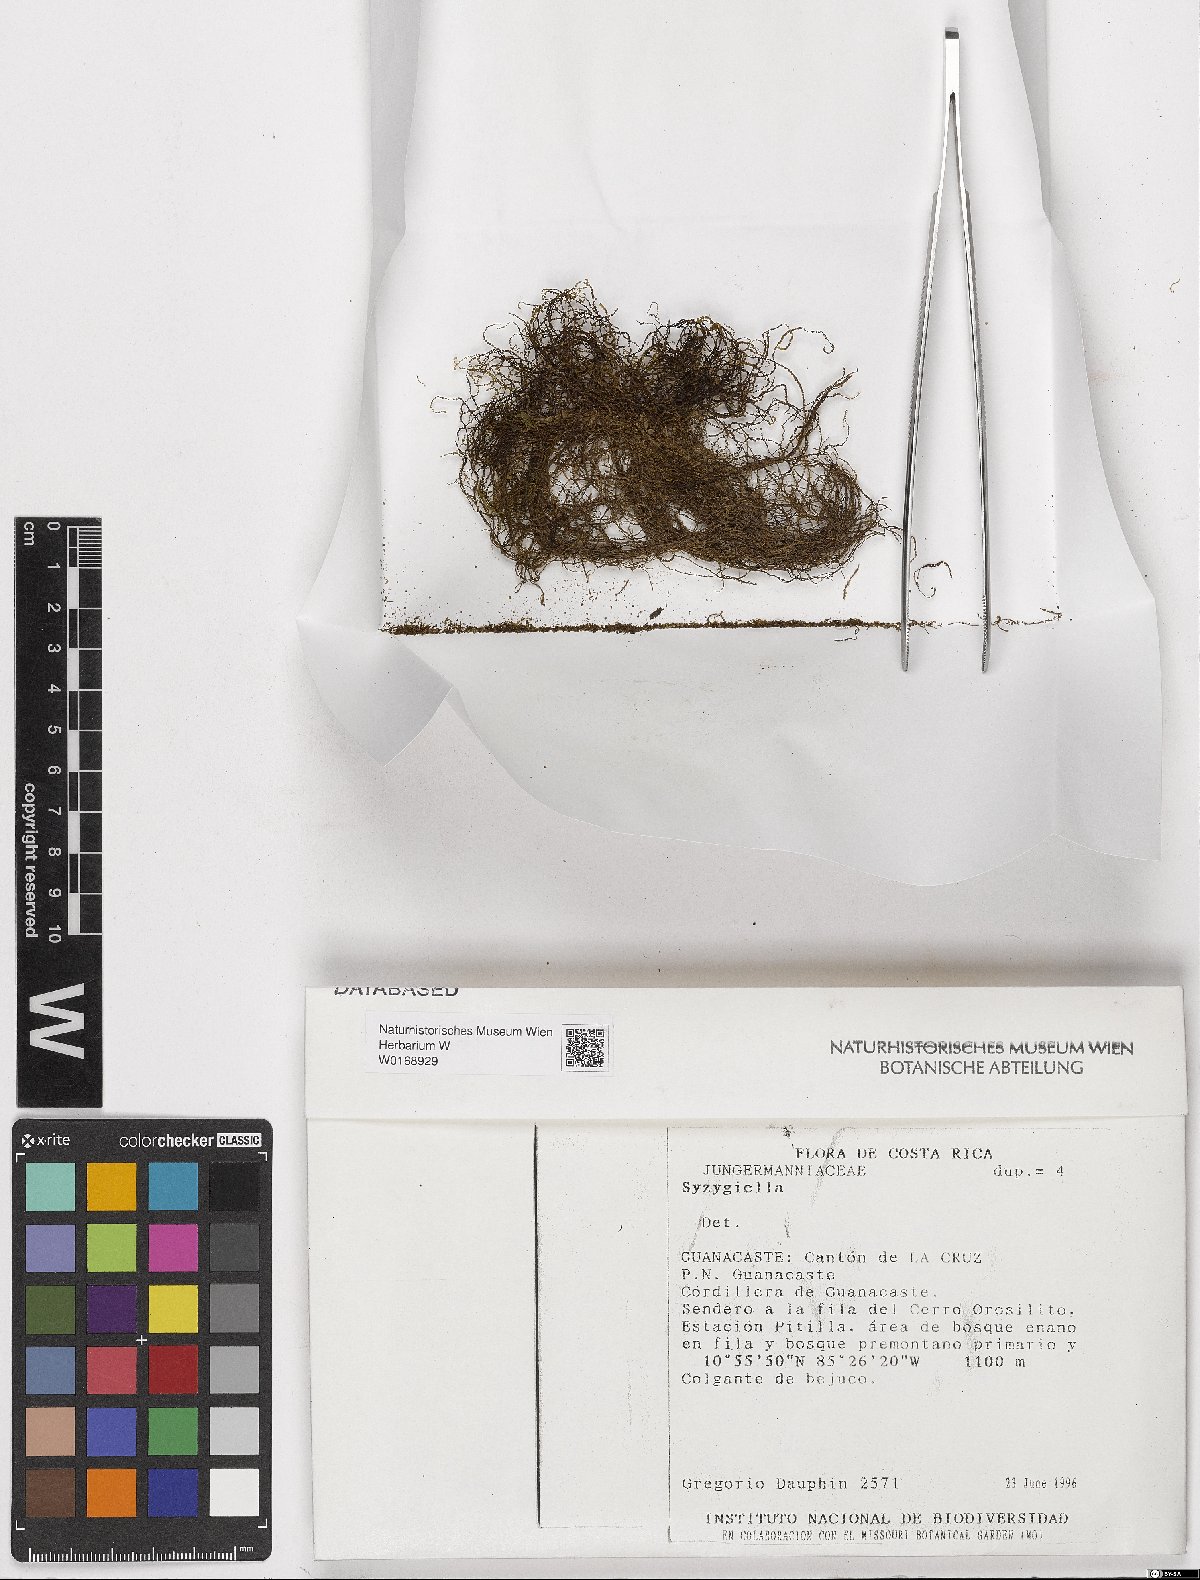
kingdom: Plantae
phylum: Marchantiophyta
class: Jungermanniopsida
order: Jungermanniales
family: Adelanthaceae
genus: Syzygiella
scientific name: Syzygiella
